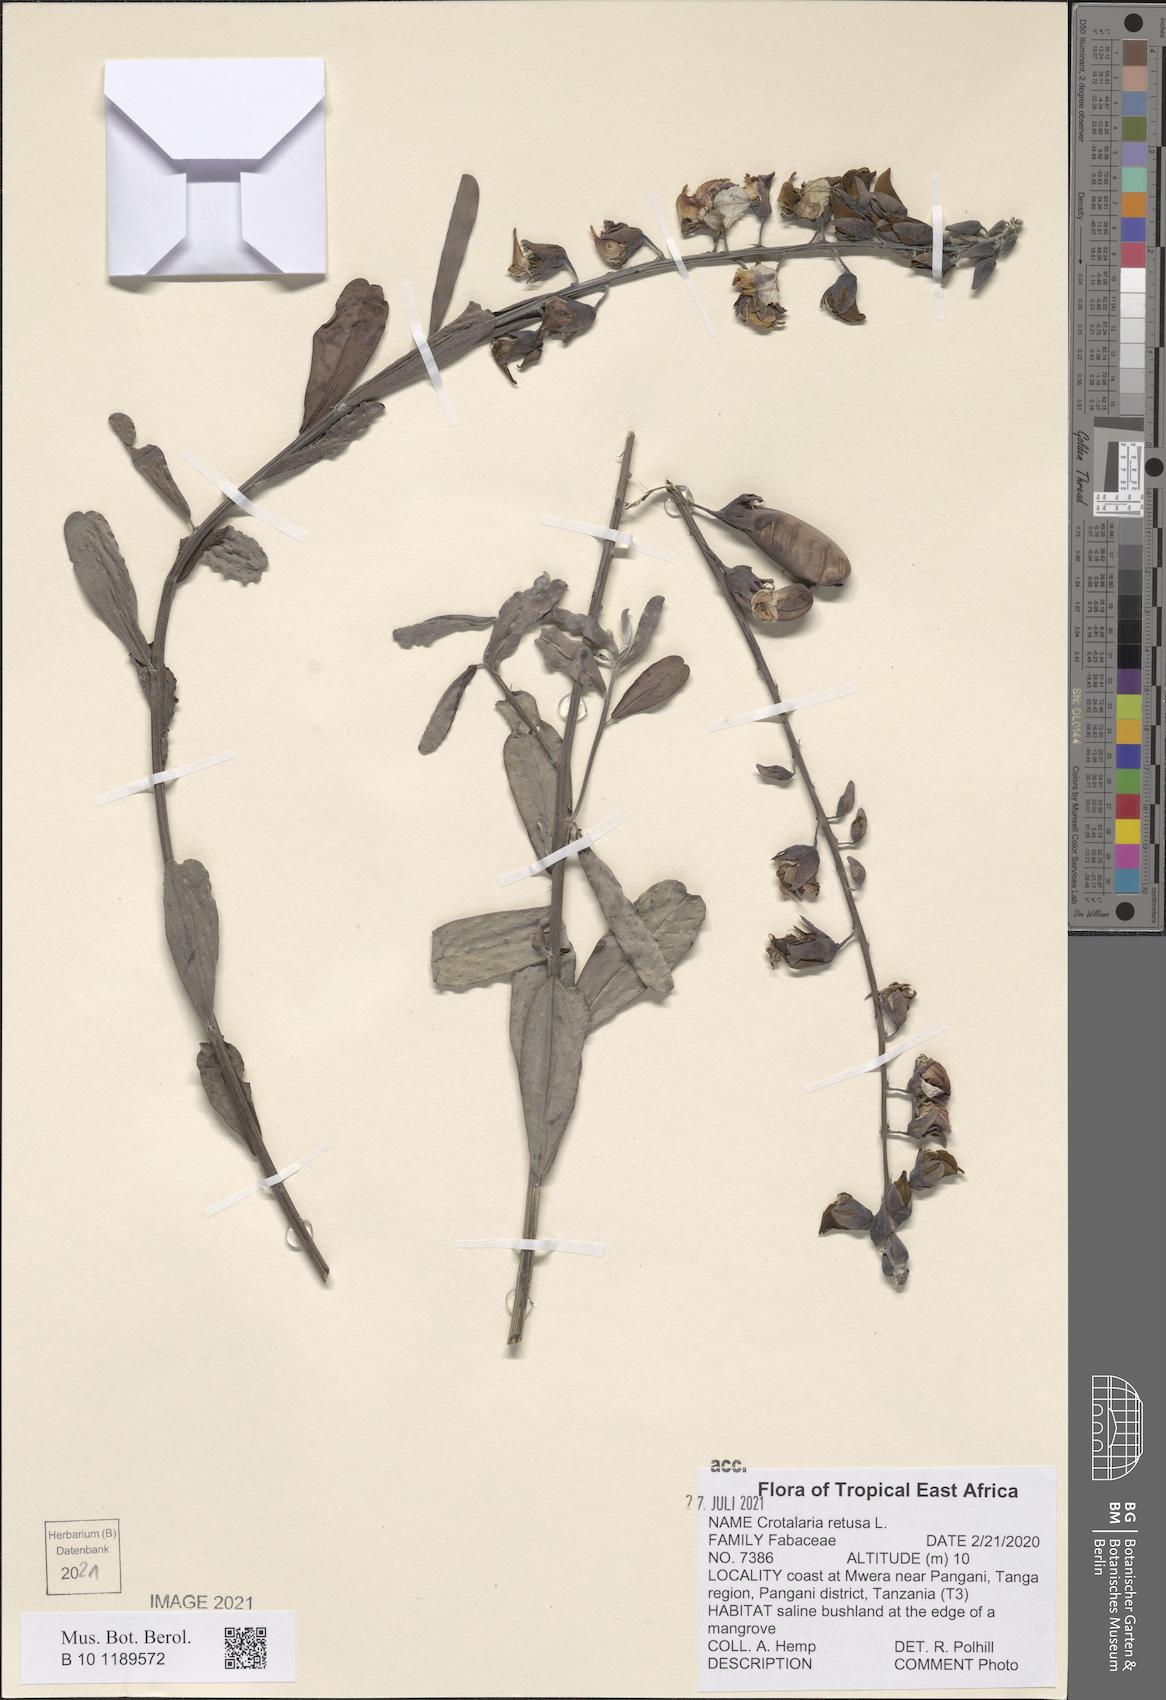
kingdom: Plantae
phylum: Tracheophyta
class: Magnoliopsida
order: Fabales
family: Fabaceae
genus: Crotalaria
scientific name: Crotalaria retusa
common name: Rattleweed
